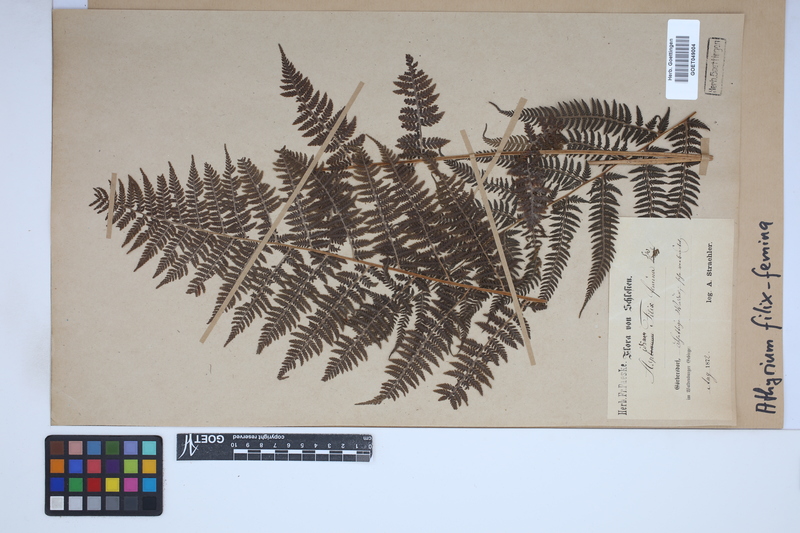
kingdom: Plantae
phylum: Tracheophyta
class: Polypodiopsida
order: Polypodiales
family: Athyriaceae
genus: Athyrium
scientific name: Athyrium filix-femina
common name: Lady fern
